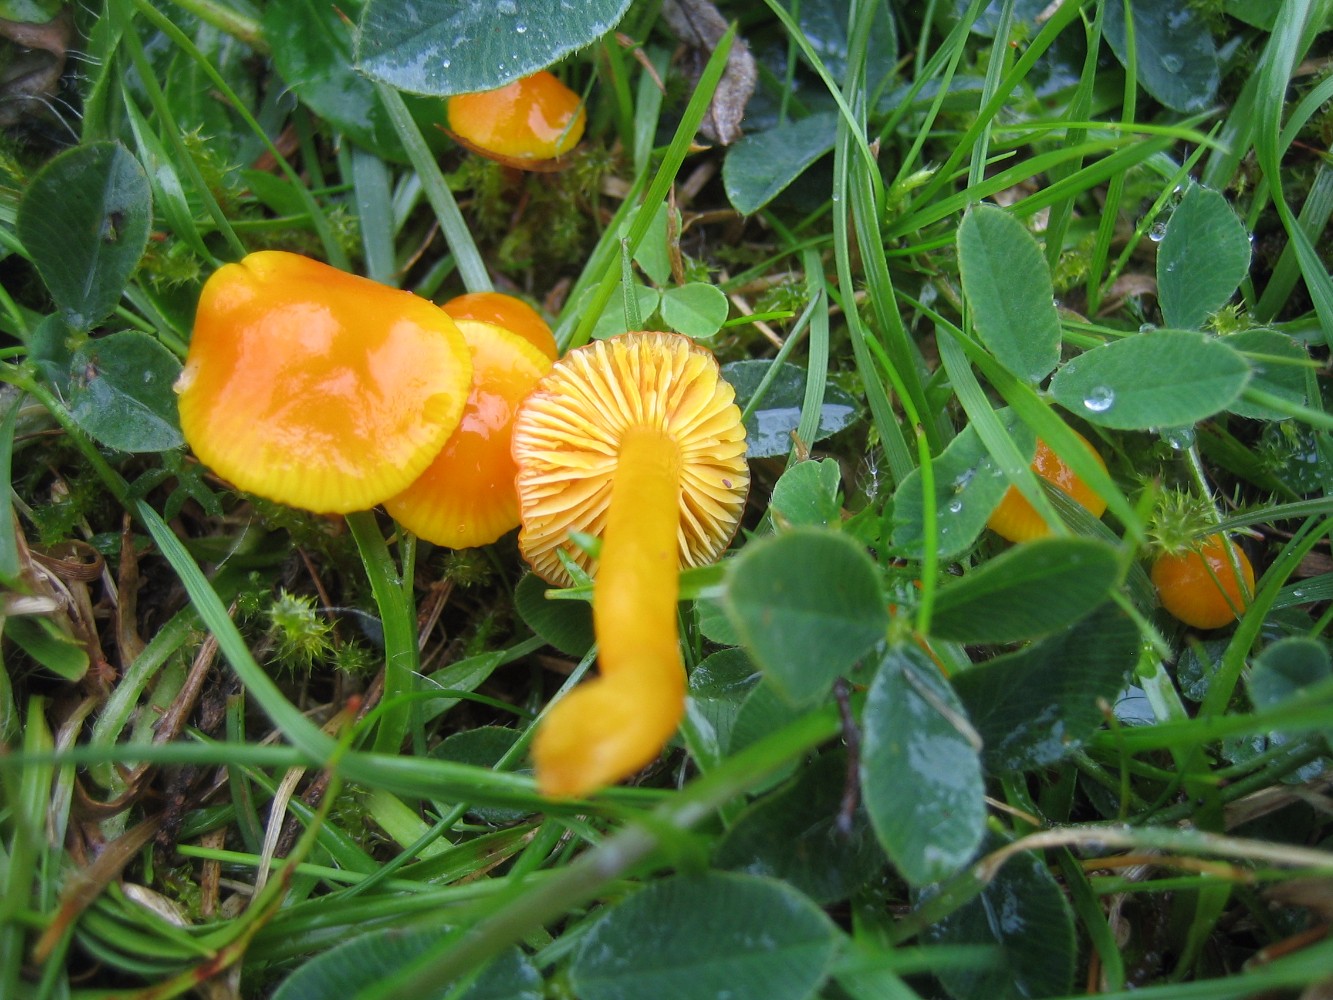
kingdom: Fungi
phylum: Basidiomycota
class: Agaricomycetes
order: Agaricales
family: Hygrophoraceae
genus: Hygrocybe
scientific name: Hygrocybe ceracea
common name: voksgul vokshat
